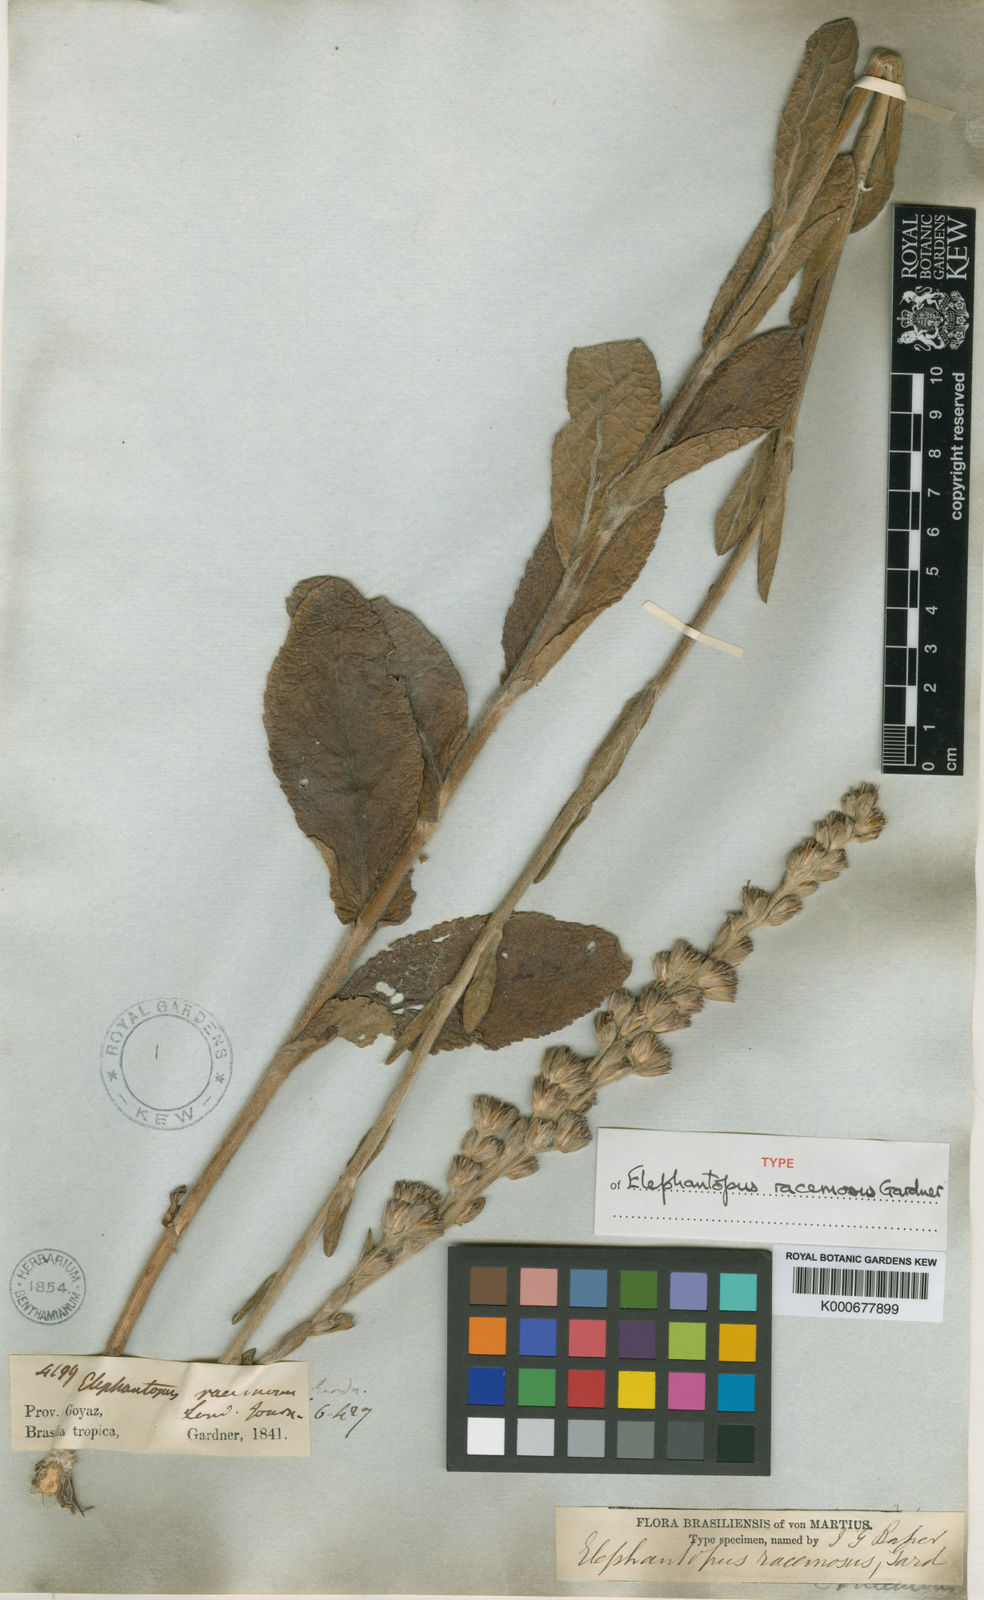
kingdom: Plantae
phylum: Tracheophyta
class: Magnoliopsida
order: Asterales
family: Asteraceae
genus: Elephantopus
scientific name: Elephantopus racemosus
